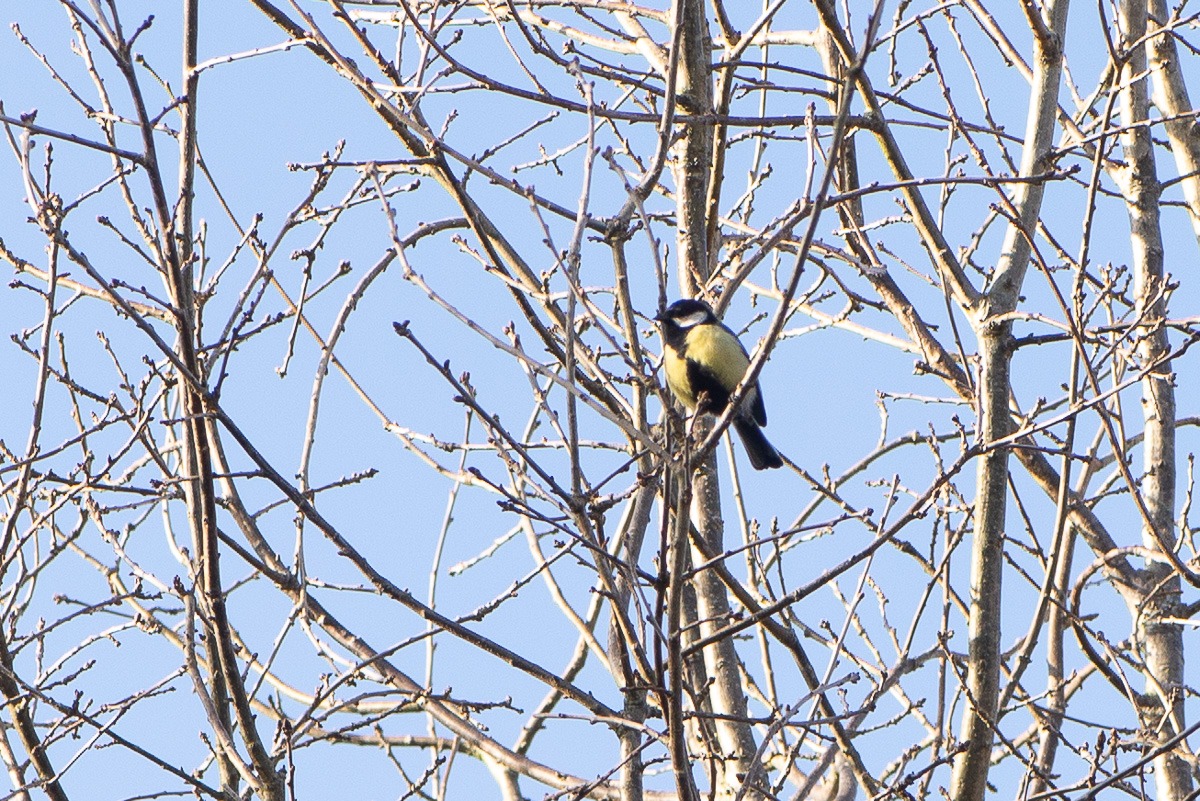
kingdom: Animalia
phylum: Chordata
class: Aves
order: Passeriformes
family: Paridae
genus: Parus
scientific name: Parus major
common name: Musvit
